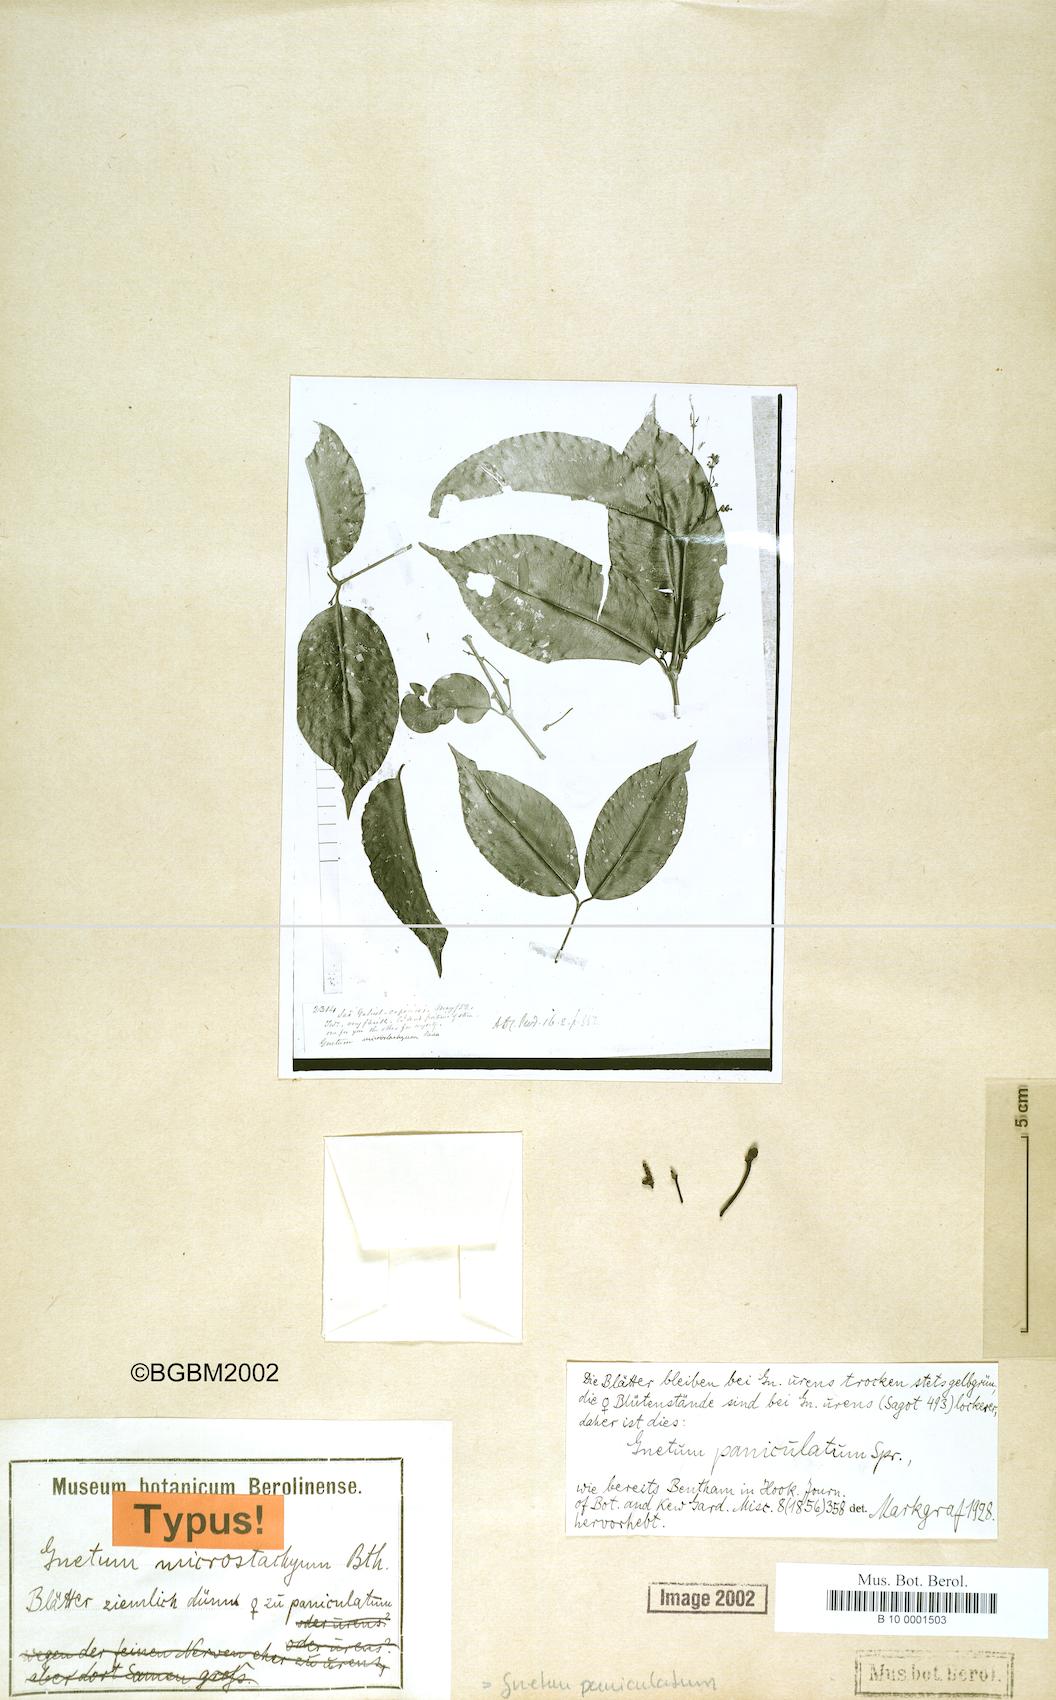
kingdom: Plantae
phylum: Tracheophyta
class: Gnetopsida
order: Gnetales
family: Gnetaceae
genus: Gnetum
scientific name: Gnetum paniculatum
